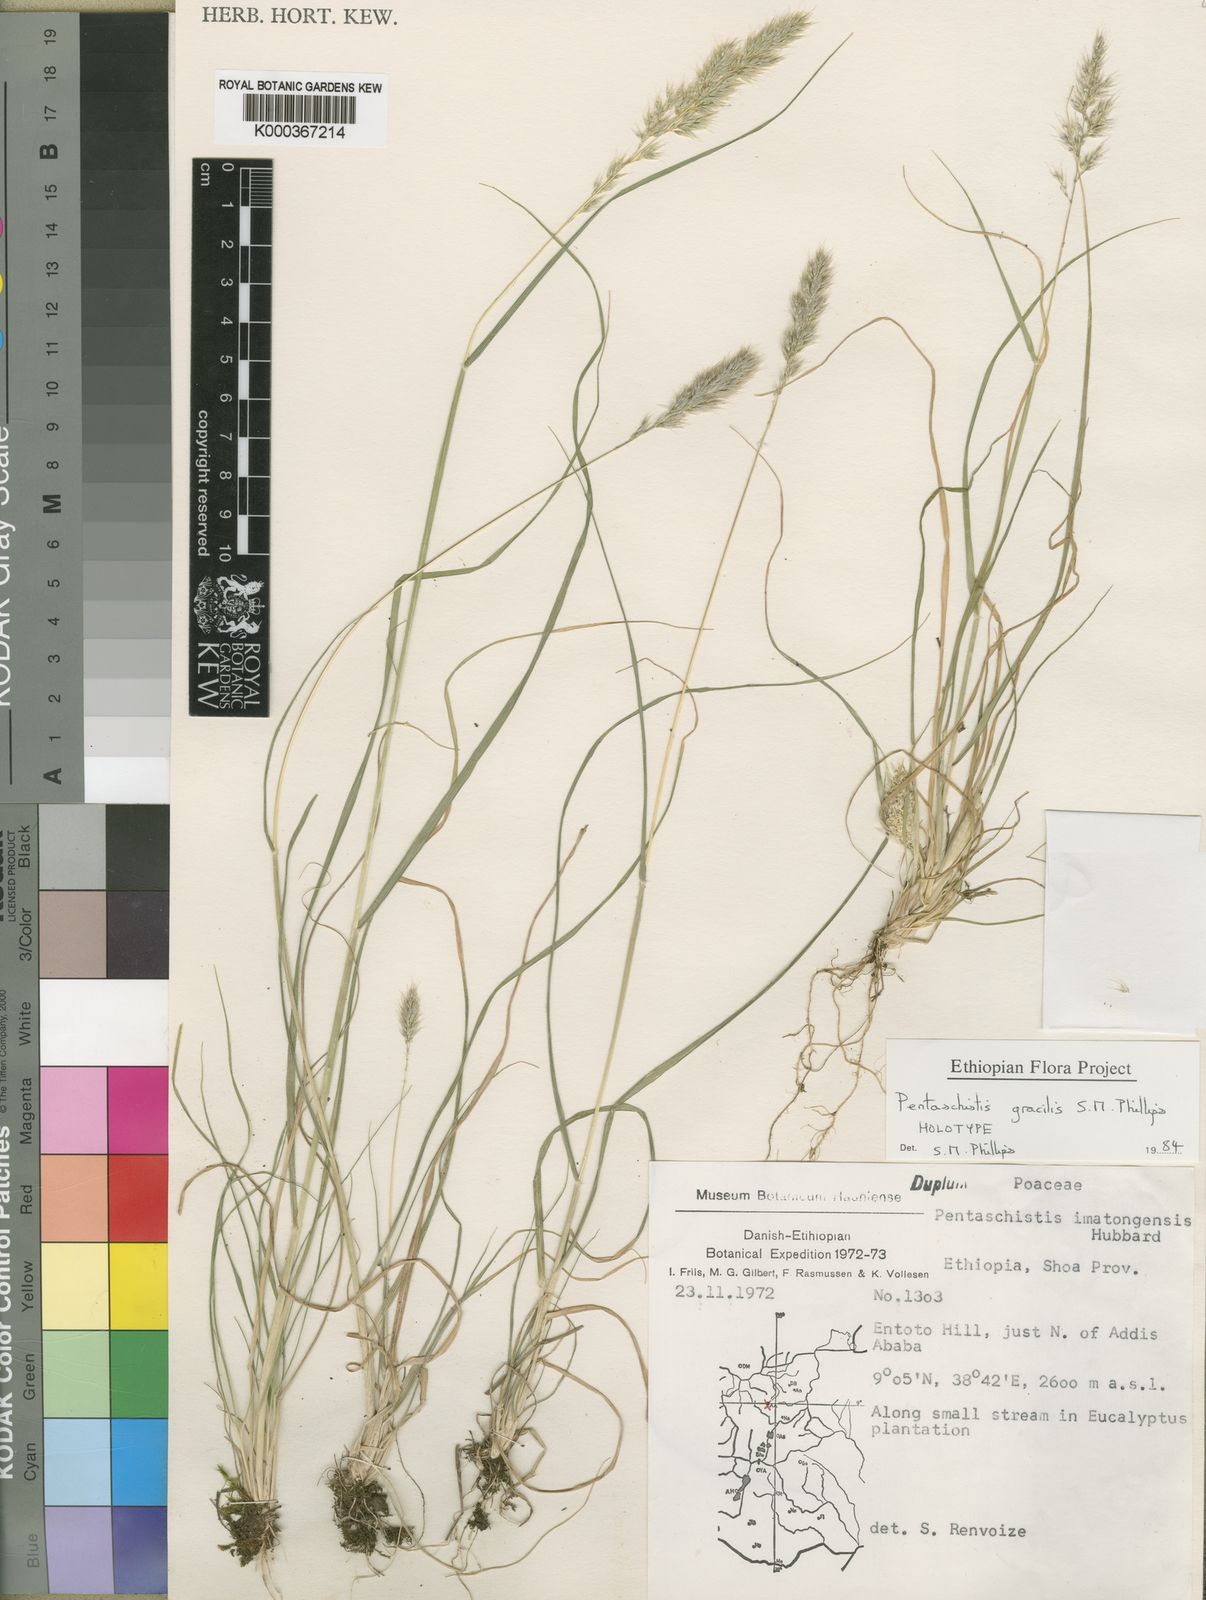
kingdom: Plantae
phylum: Tracheophyta
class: Liliopsida
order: Poales
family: Poaceae
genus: Pentameris
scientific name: Pentameris pictigluma
